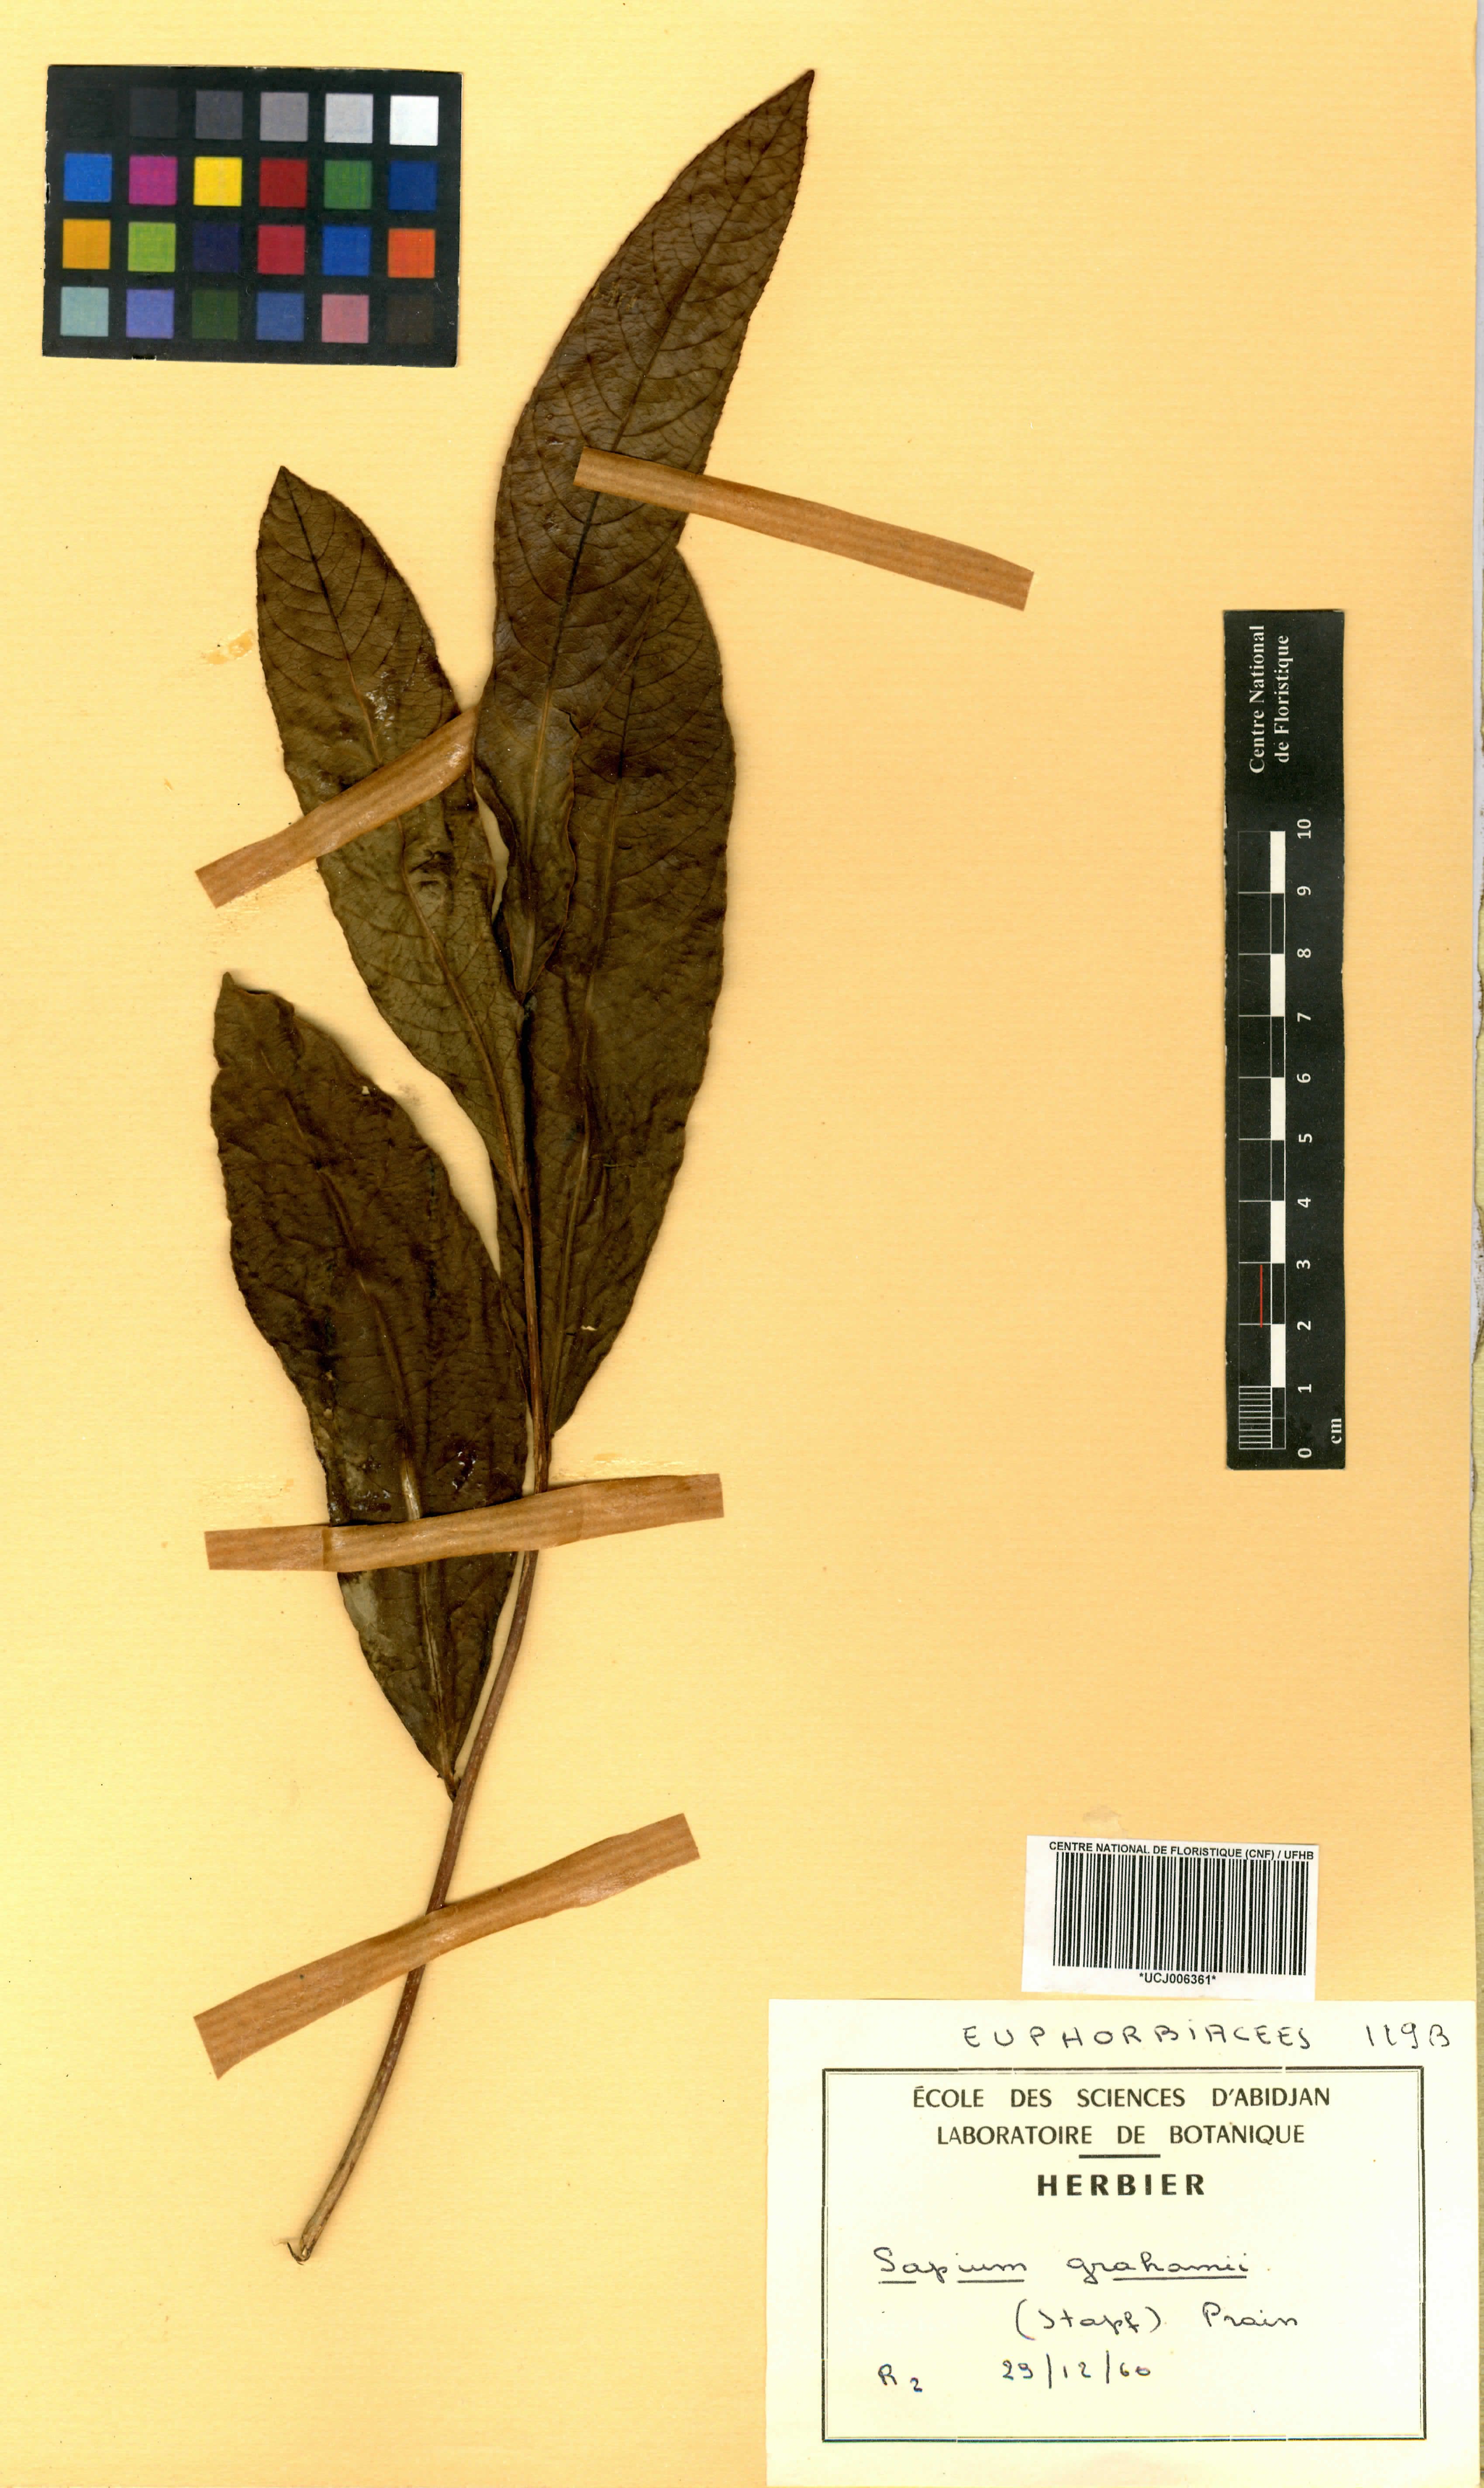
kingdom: Plantae
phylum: Tracheophyta
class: Magnoliopsida
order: Malpighiales
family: Euphorbiaceae
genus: Excoecaria
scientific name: Excoecaria grahamii
